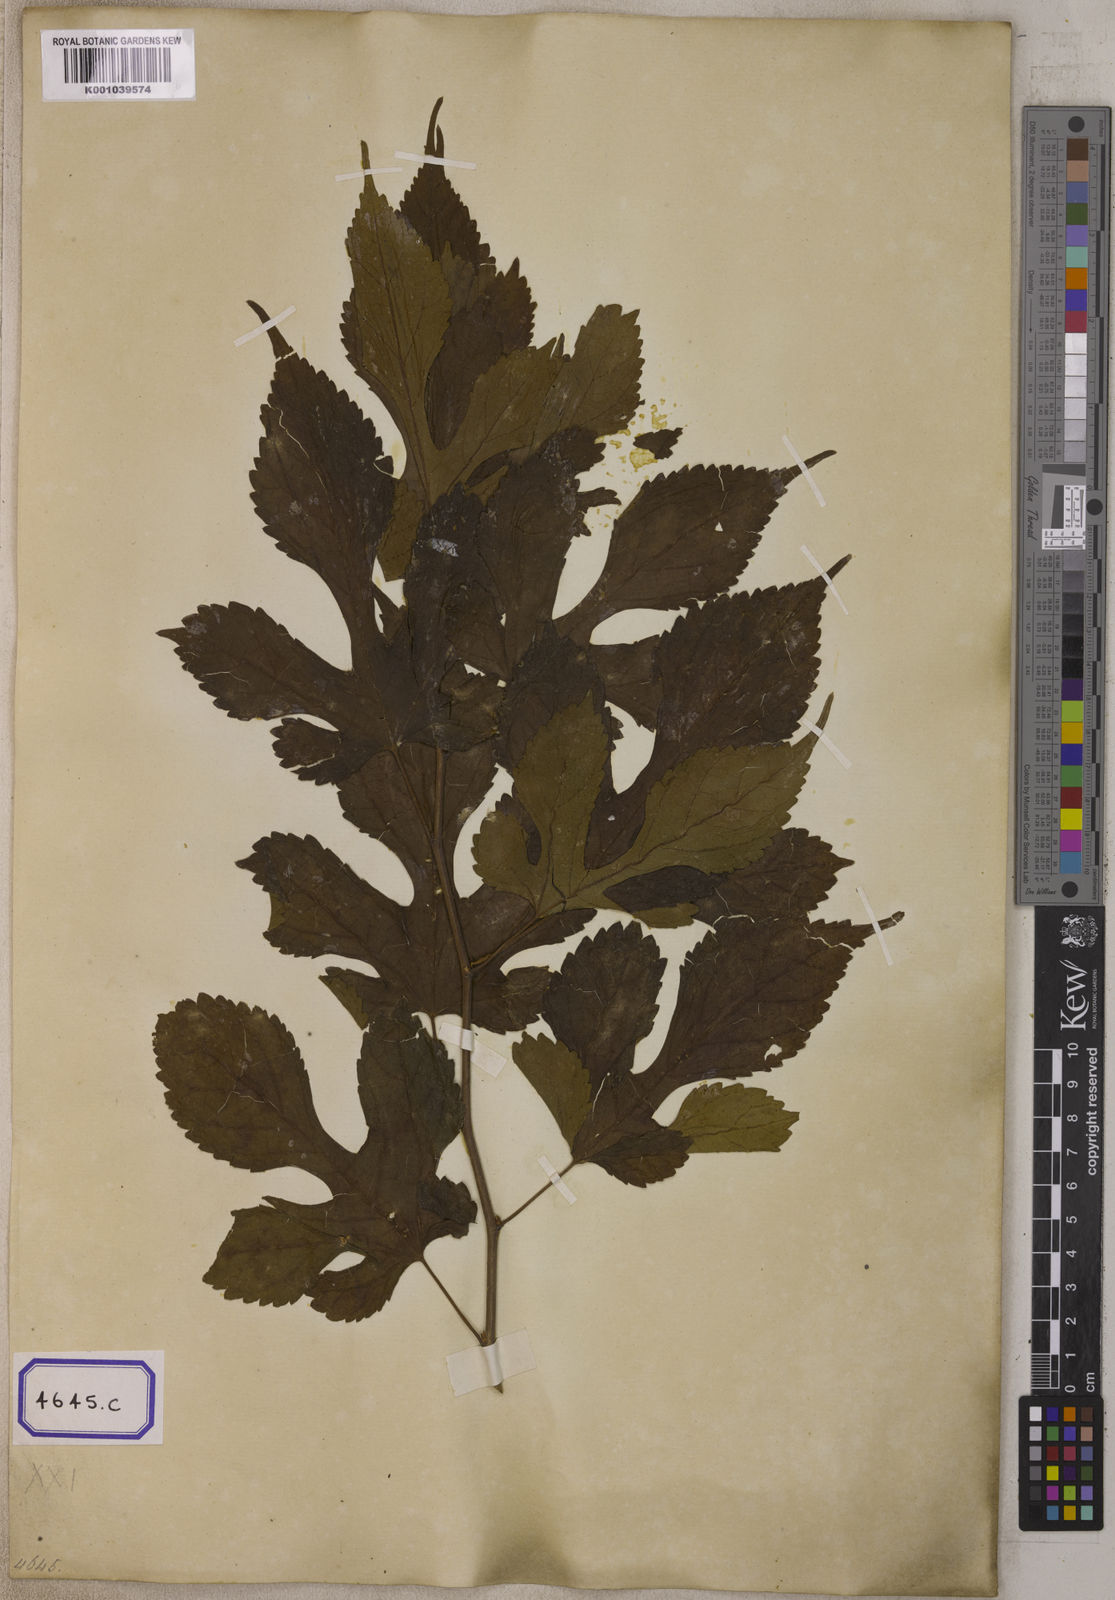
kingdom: Plantae
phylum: Tracheophyta
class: Magnoliopsida
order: Rosales
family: Moraceae
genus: Morus
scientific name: Morus indica
